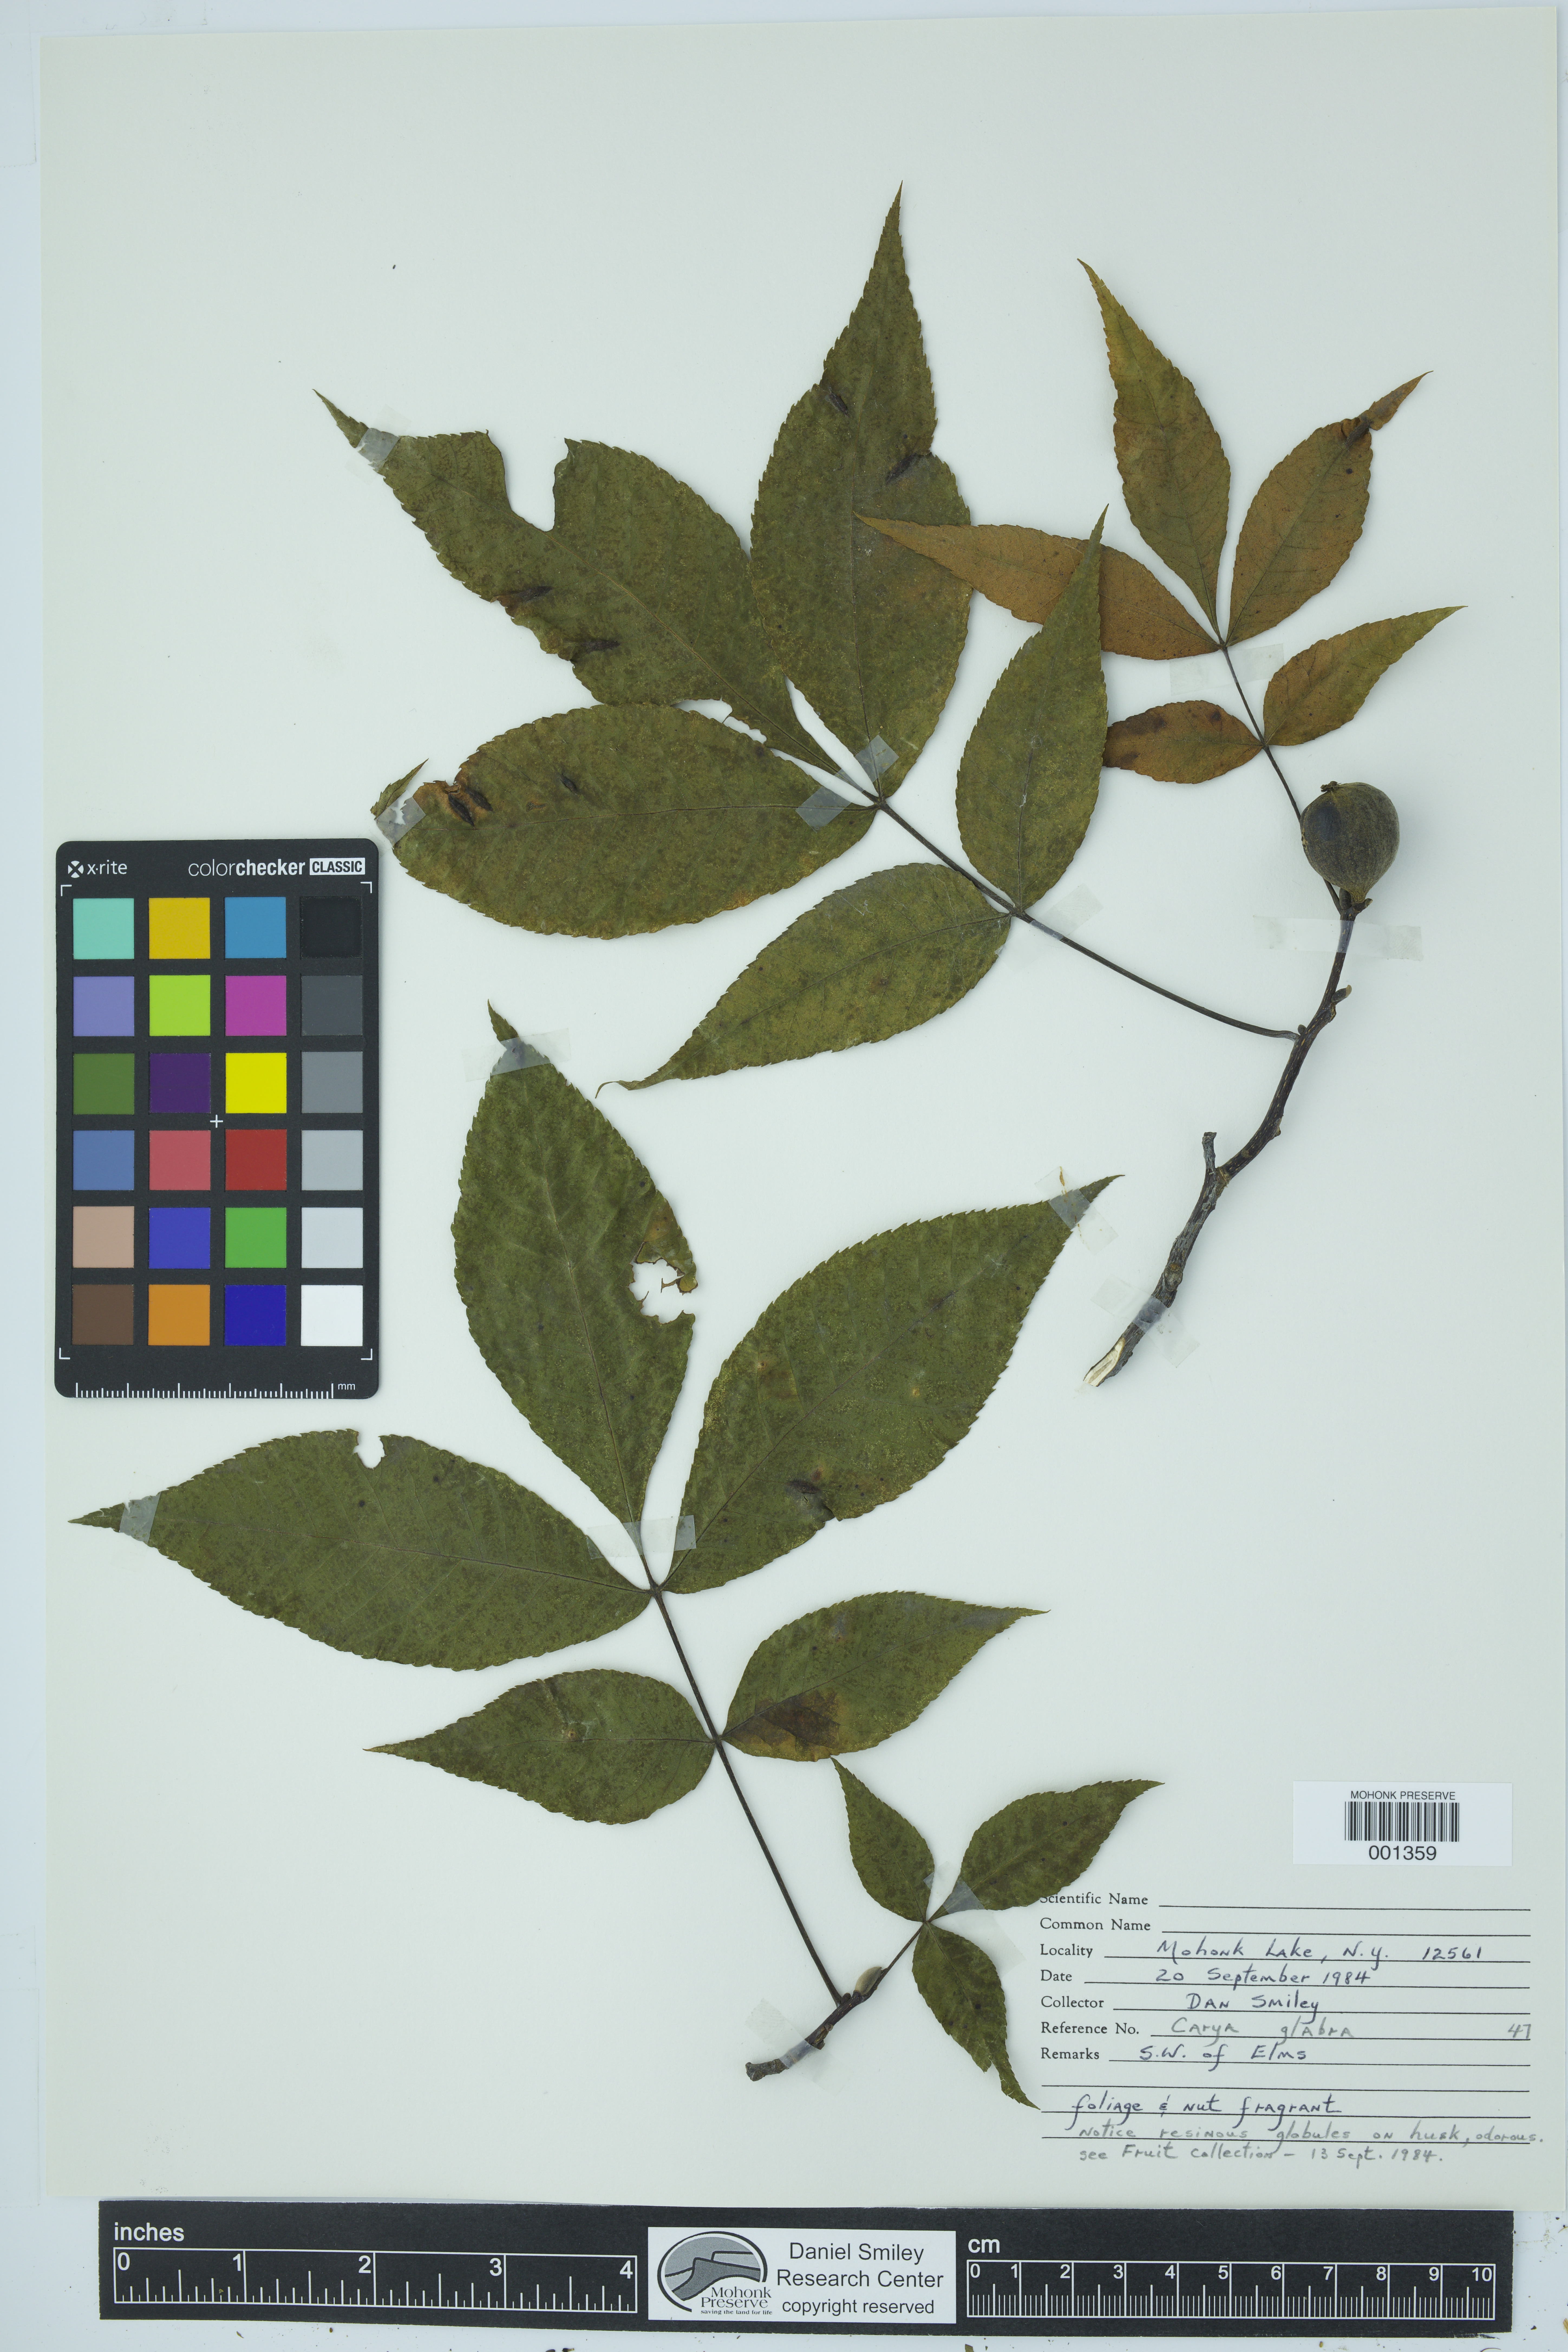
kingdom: Plantae
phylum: Tracheophyta
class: Magnoliopsida
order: Fagales
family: Juglandaceae
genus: Carya
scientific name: Carya glabra
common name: Pignut hickory
